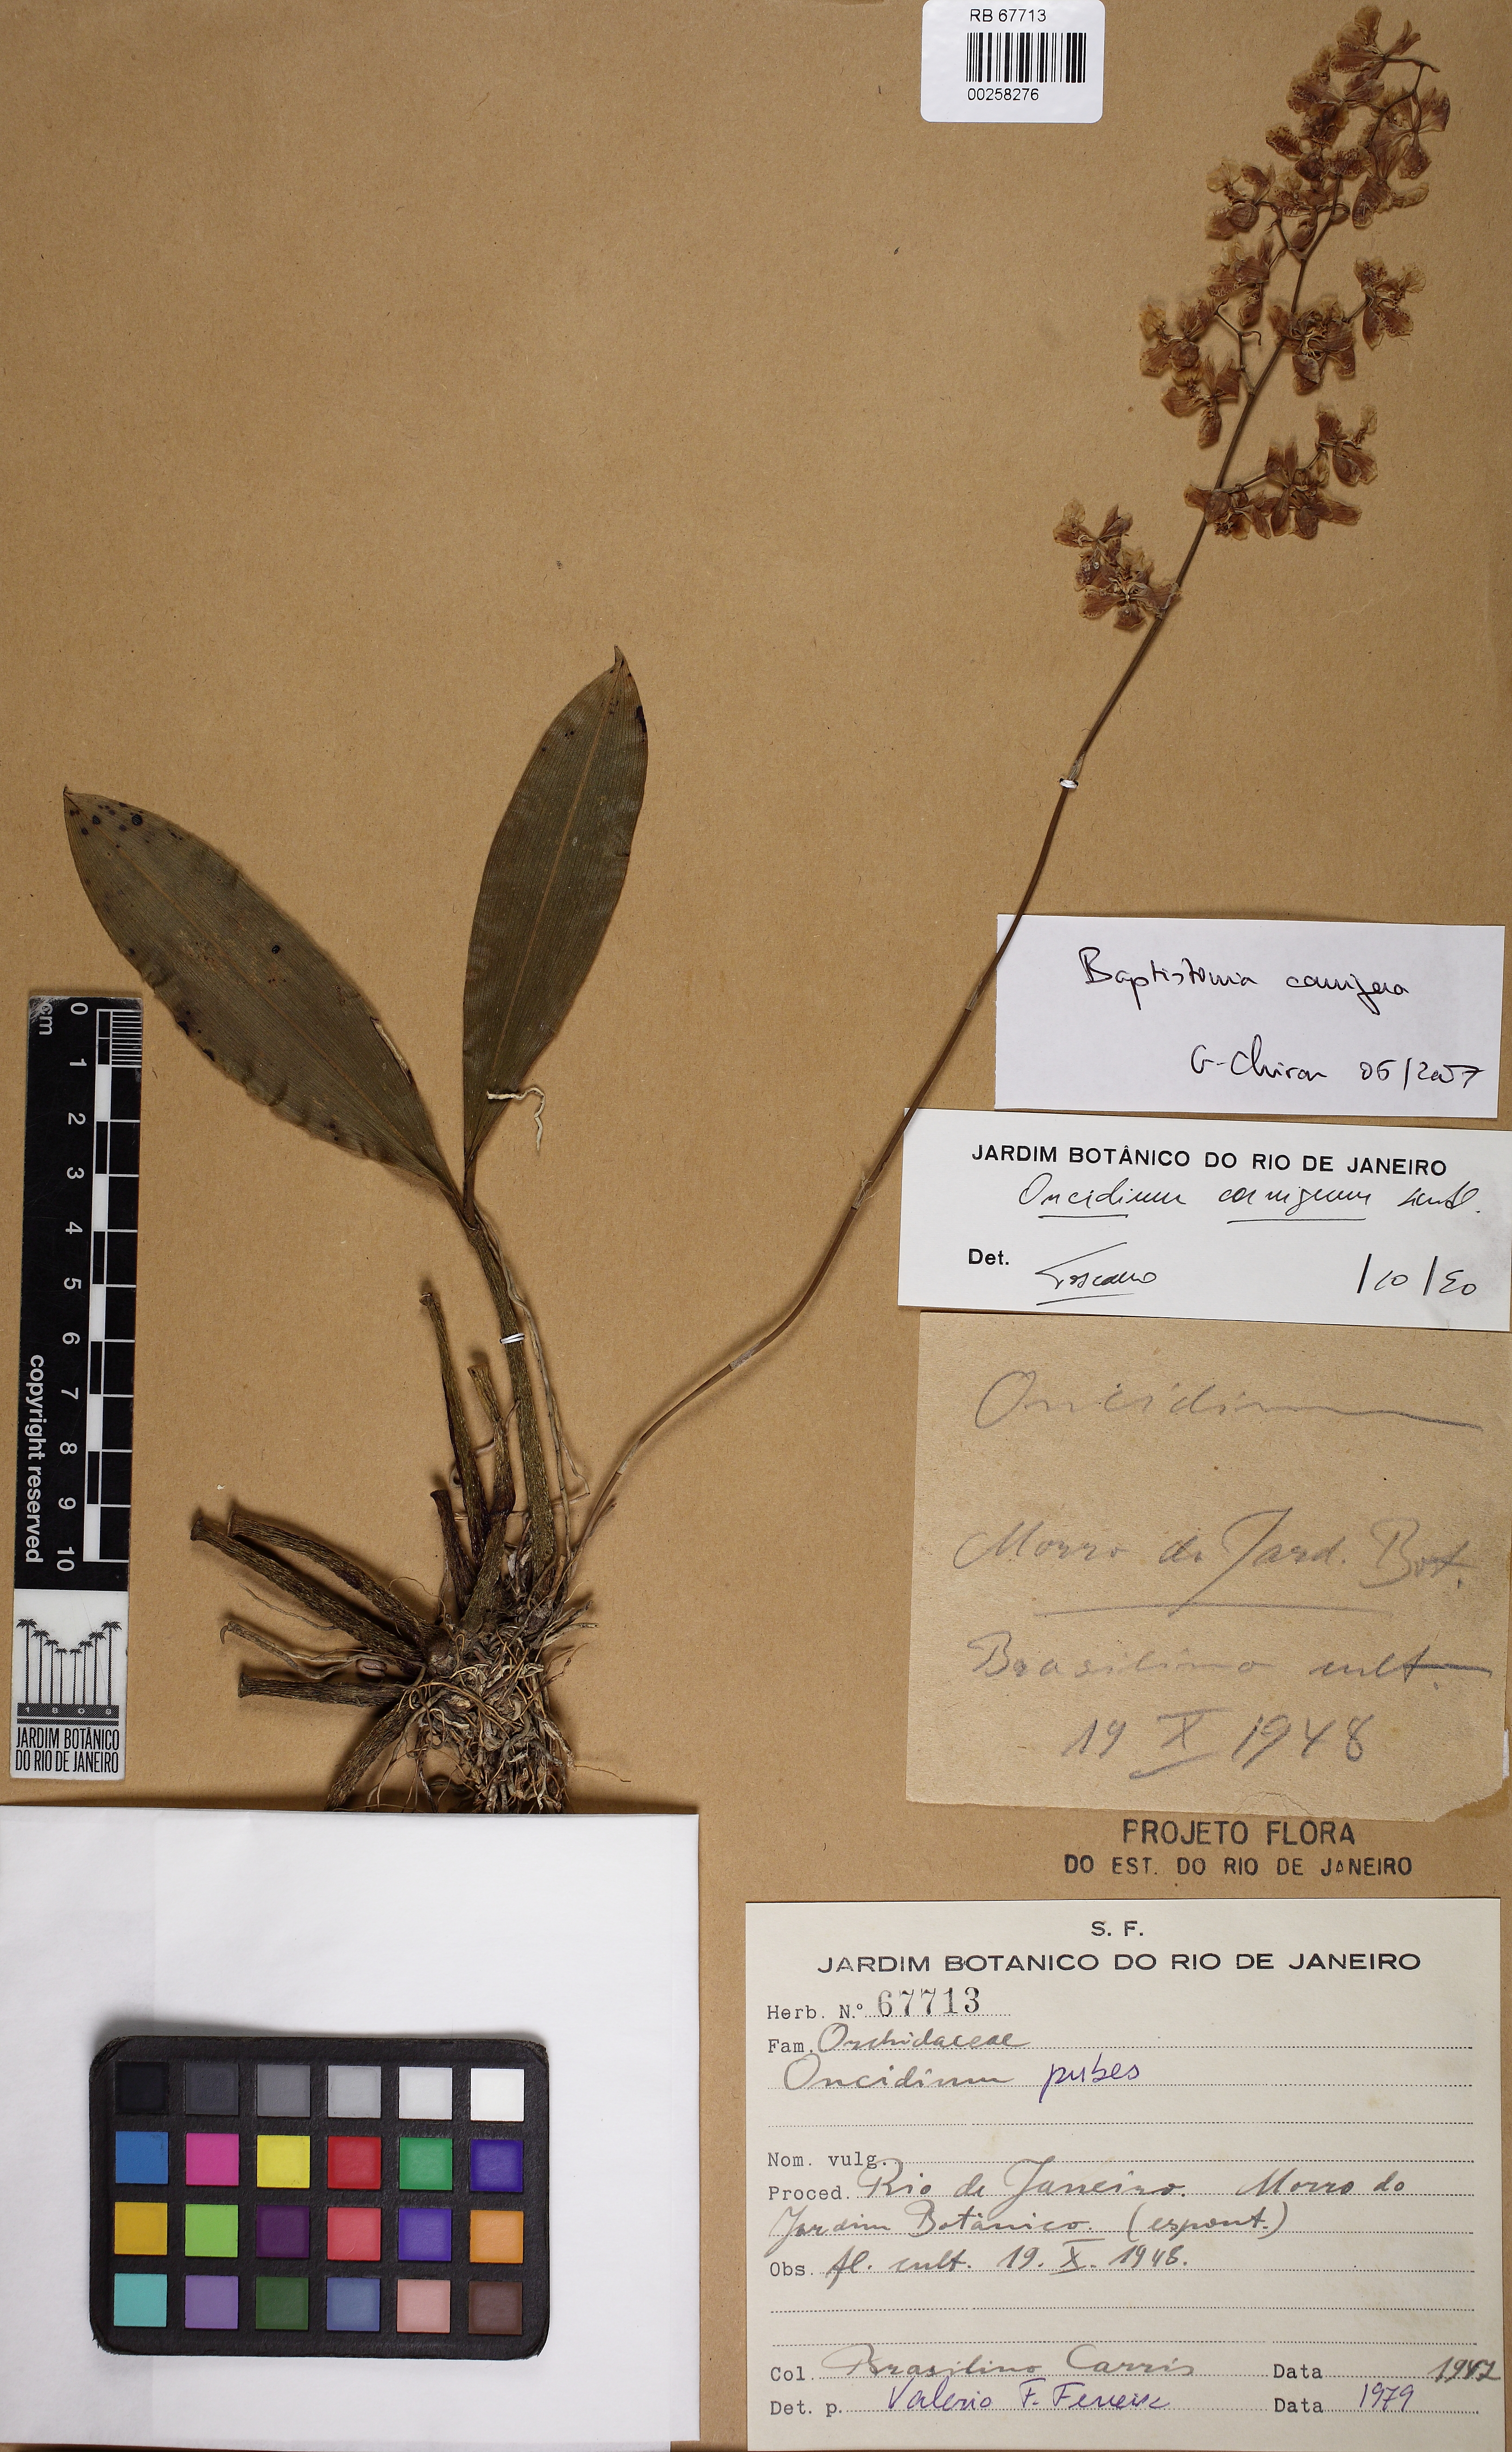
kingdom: Plantae
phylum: Tracheophyta
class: Liliopsida
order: Asparagales
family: Orchidaceae
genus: Gomesa
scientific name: Gomesa cornigera
